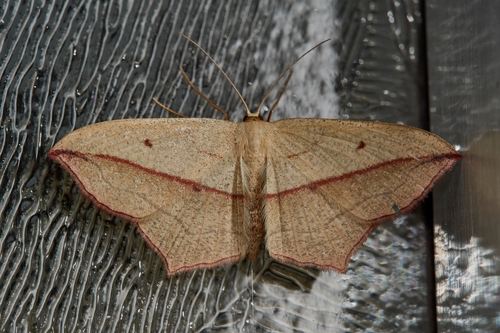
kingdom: Animalia
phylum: Arthropoda
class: Insecta
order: Lepidoptera
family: Geometridae
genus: Timandra
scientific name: Timandra comae
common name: Blood-vein
